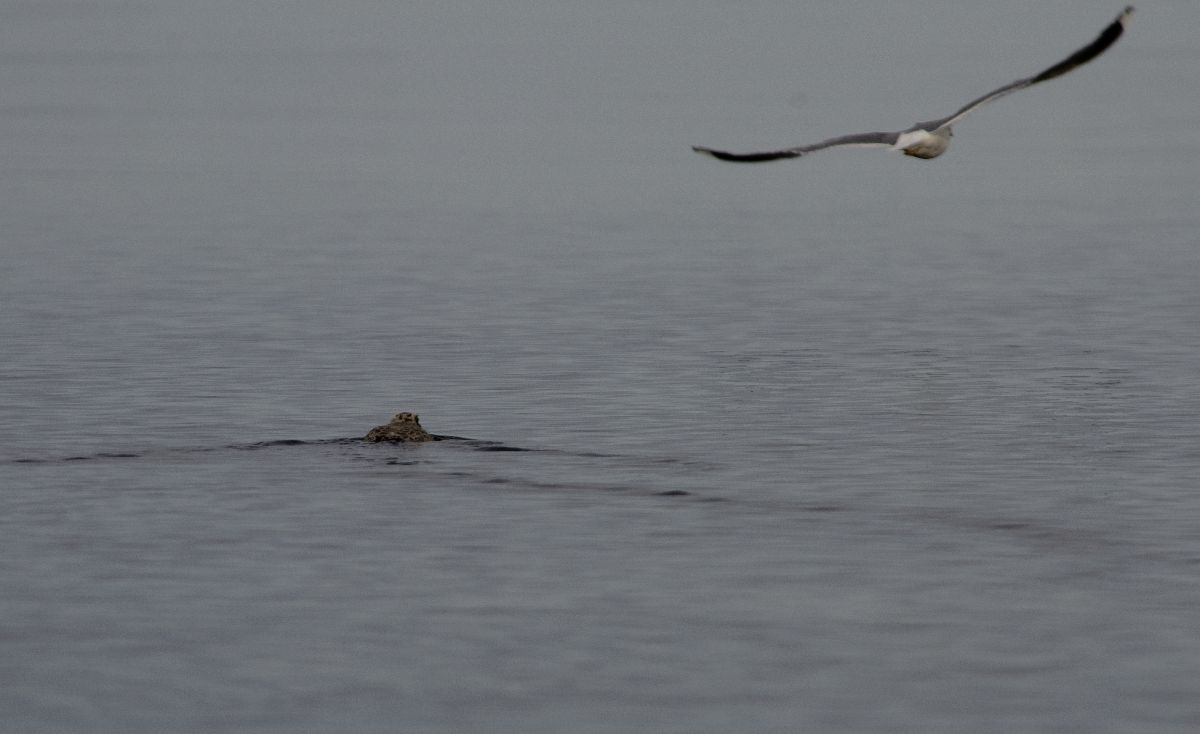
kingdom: Animalia
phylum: Chordata
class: Aves
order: Charadriiformes
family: Laridae
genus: Larus
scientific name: Larus canus
